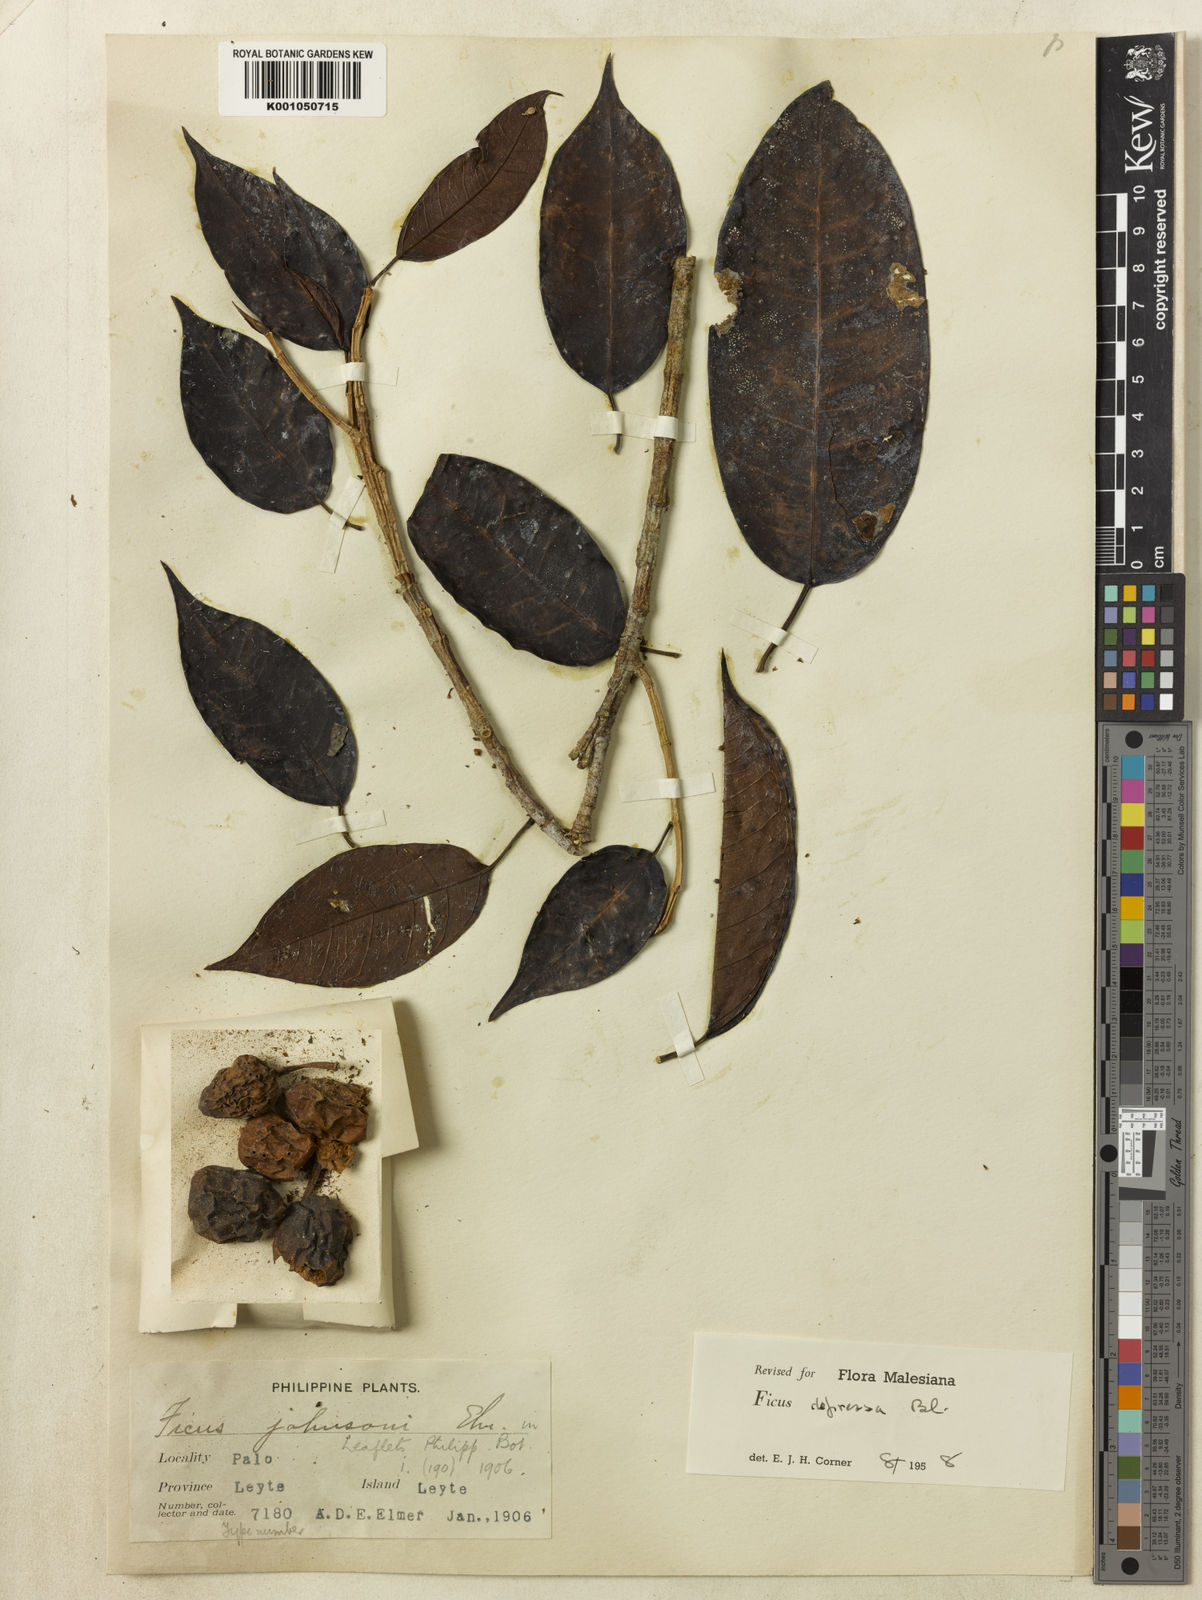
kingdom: Plantae
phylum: Tracheophyta
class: Magnoliopsida
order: Rosales
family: Moraceae
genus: Ficus
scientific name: Ficus depressa
